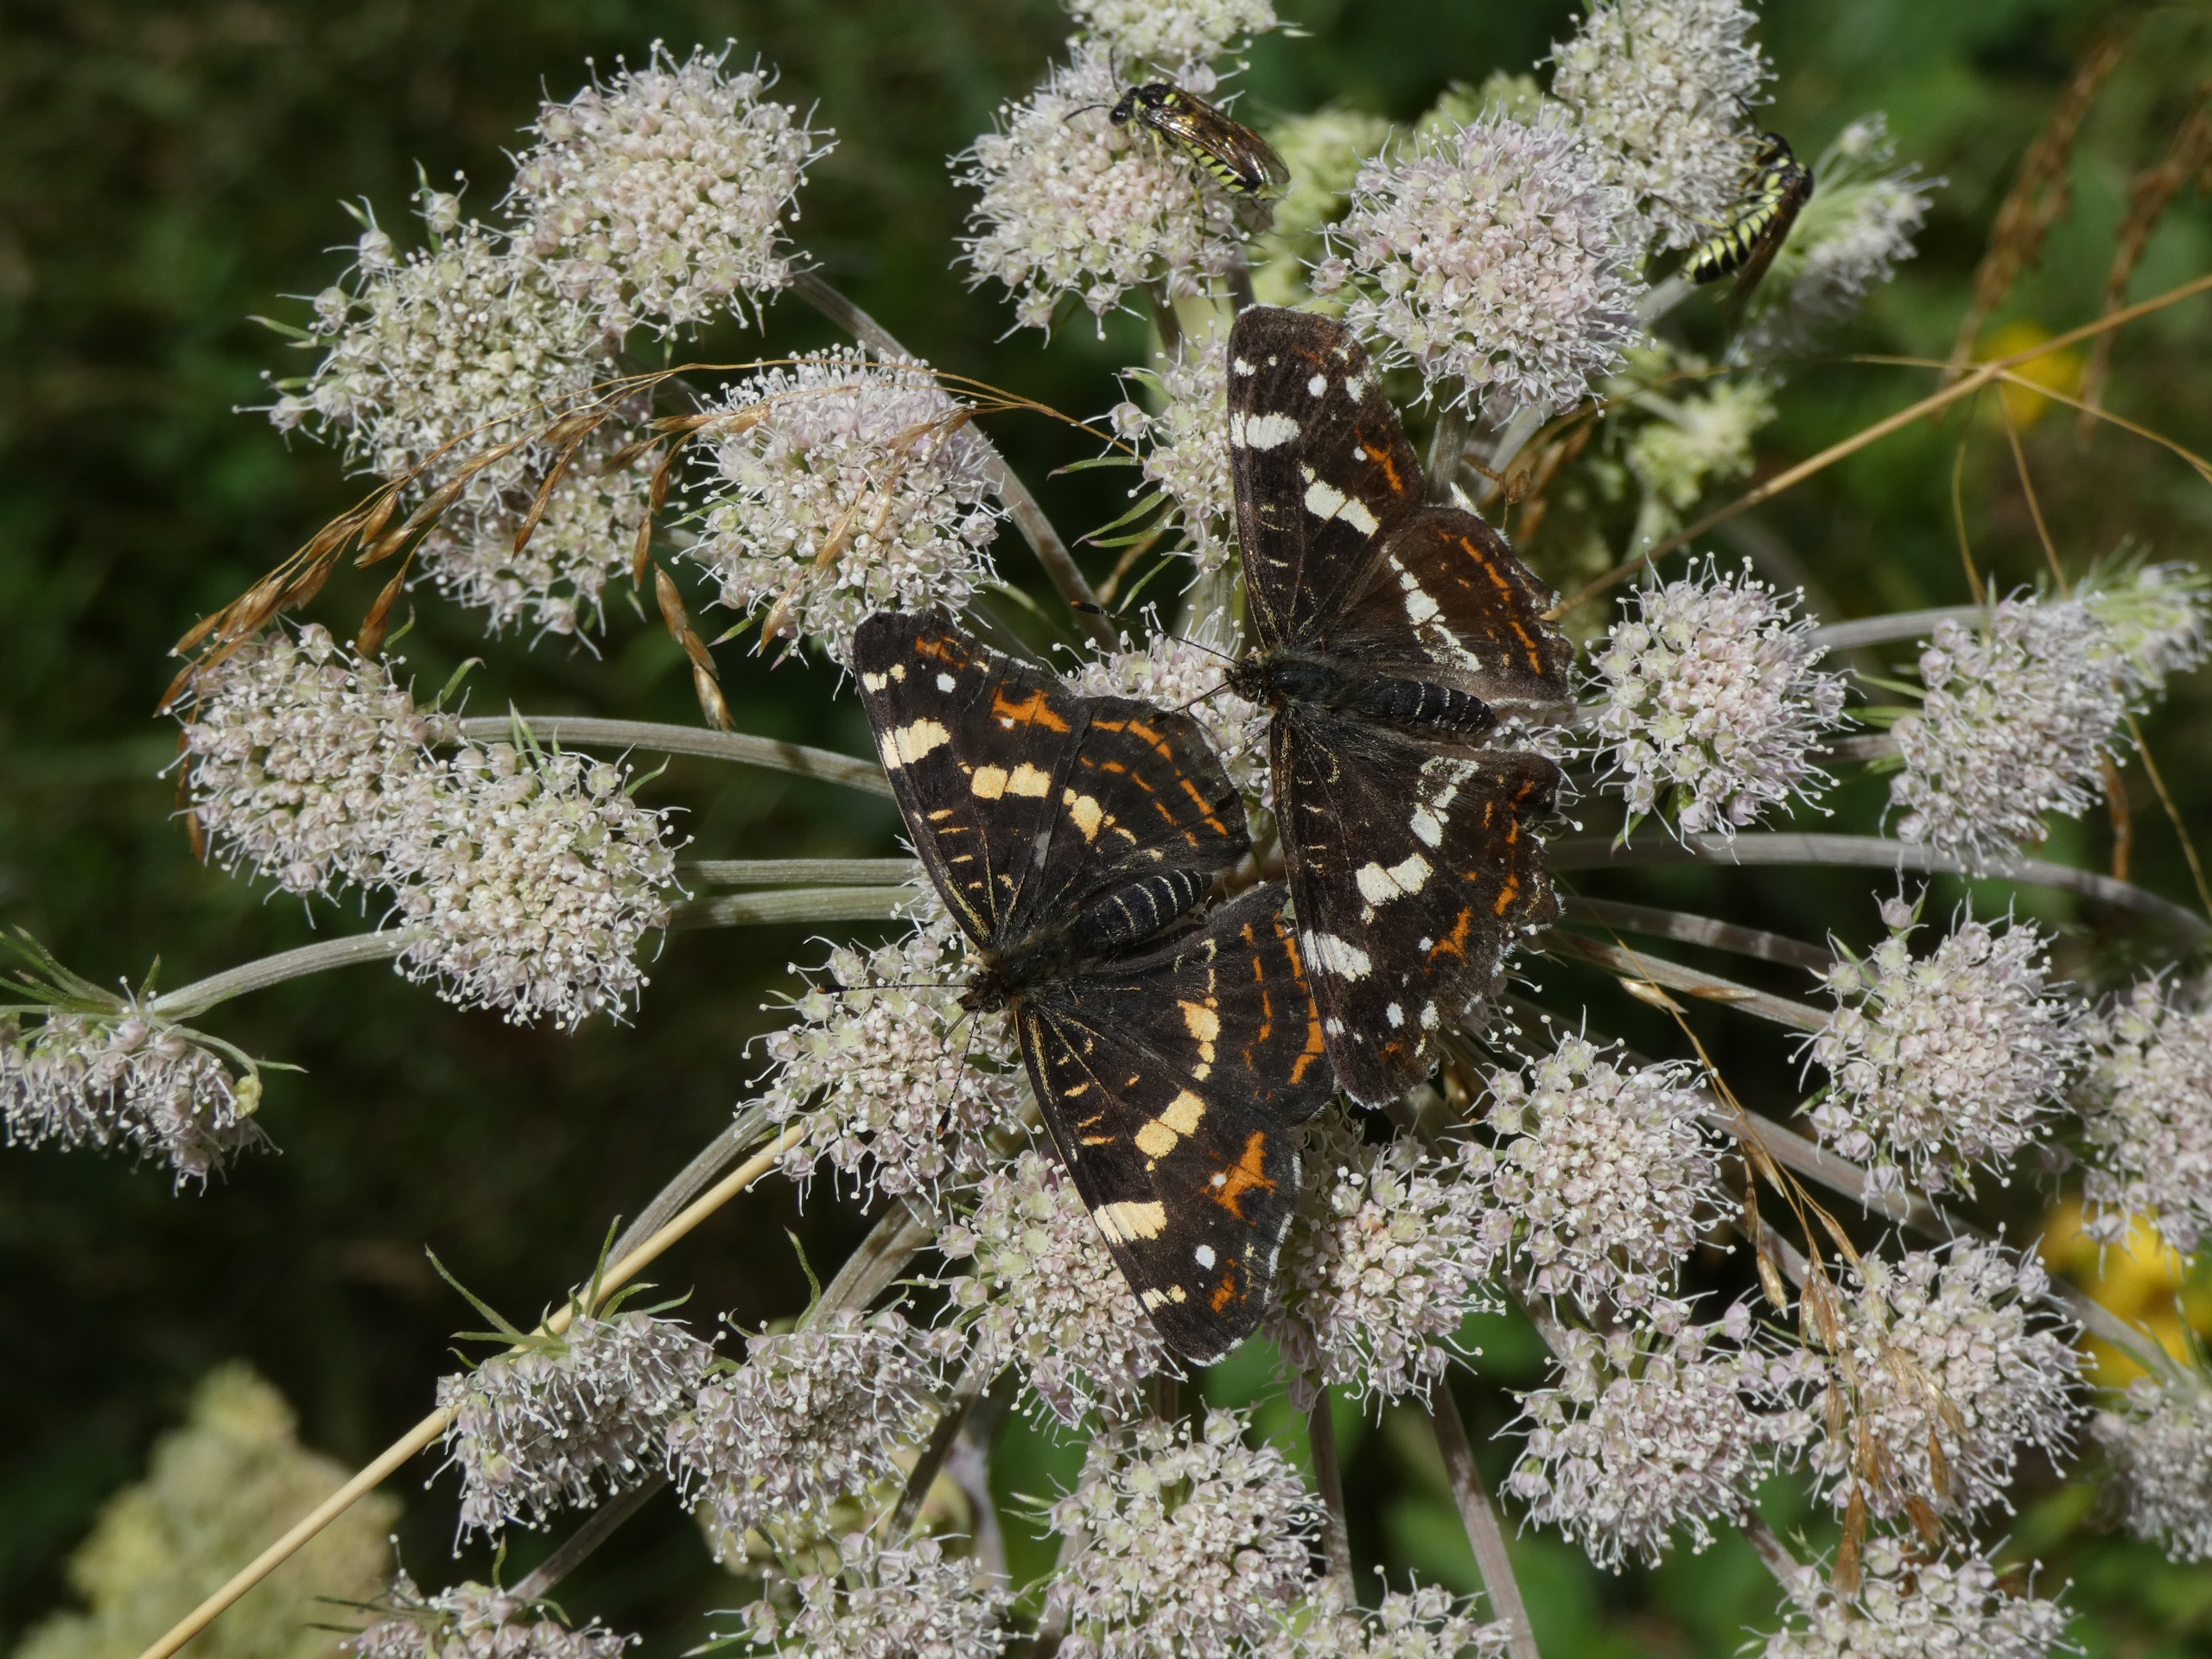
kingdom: Animalia
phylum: Arthropoda
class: Insecta
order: Lepidoptera
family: Nymphalidae
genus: Araschnia
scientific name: Araschnia levana
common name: Nældesommerfugl
